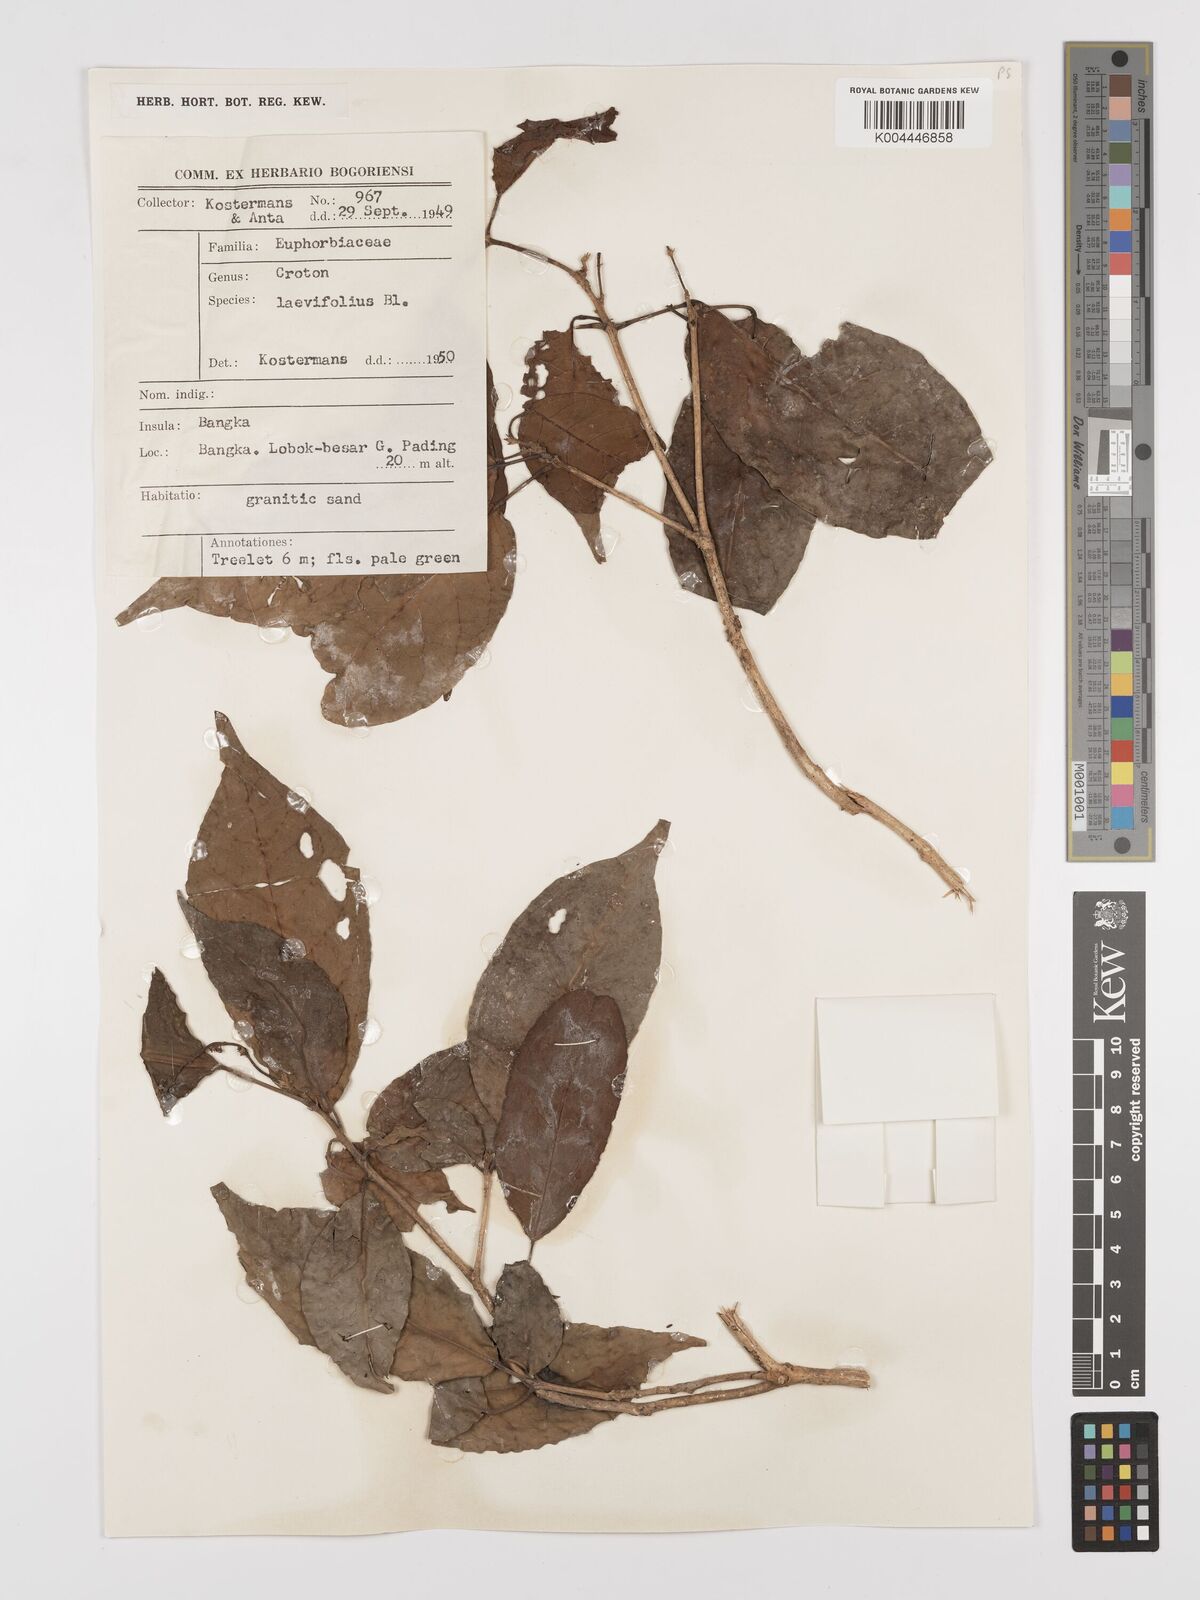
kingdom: Plantae
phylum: Tracheophyta
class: Magnoliopsida
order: Malpighiales
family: Euphorbiaceae
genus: Croton
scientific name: Croton oblongus
